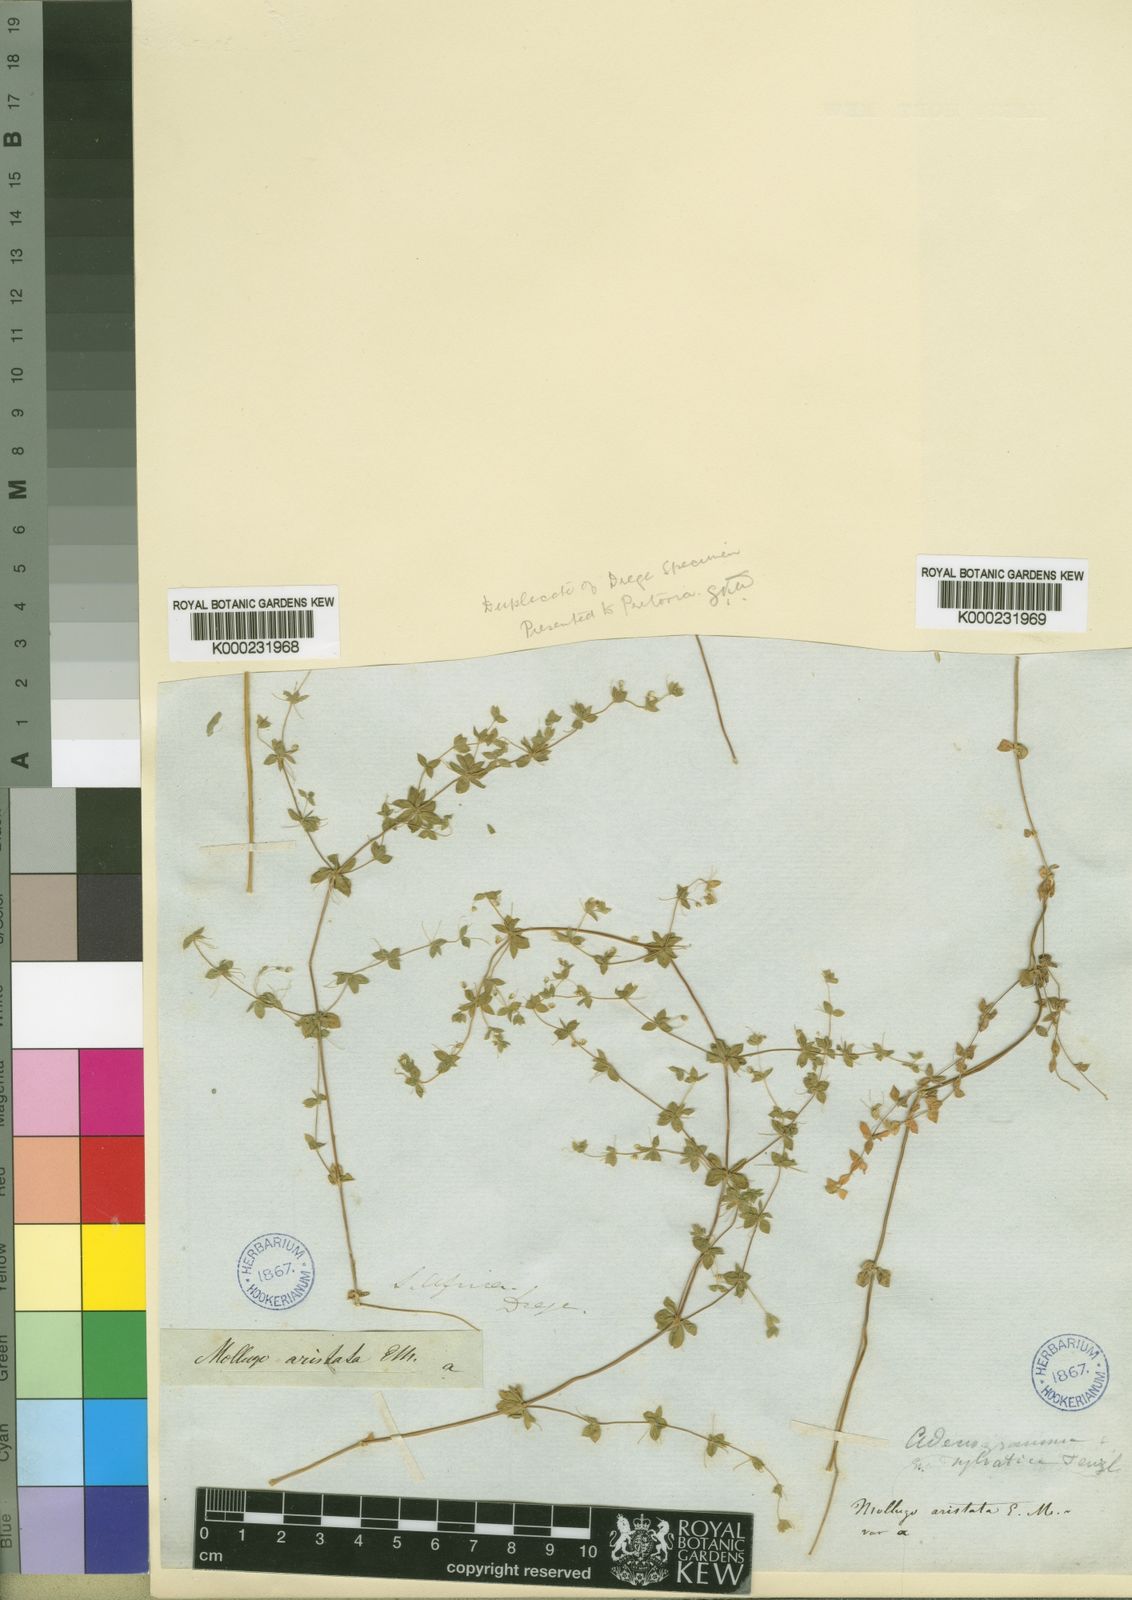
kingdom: Plantae
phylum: Tracheophyta
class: Magnoliopsida
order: Caryophyllales
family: Molluginaceae
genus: Adenogramma
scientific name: Adenogramma sylvatica
